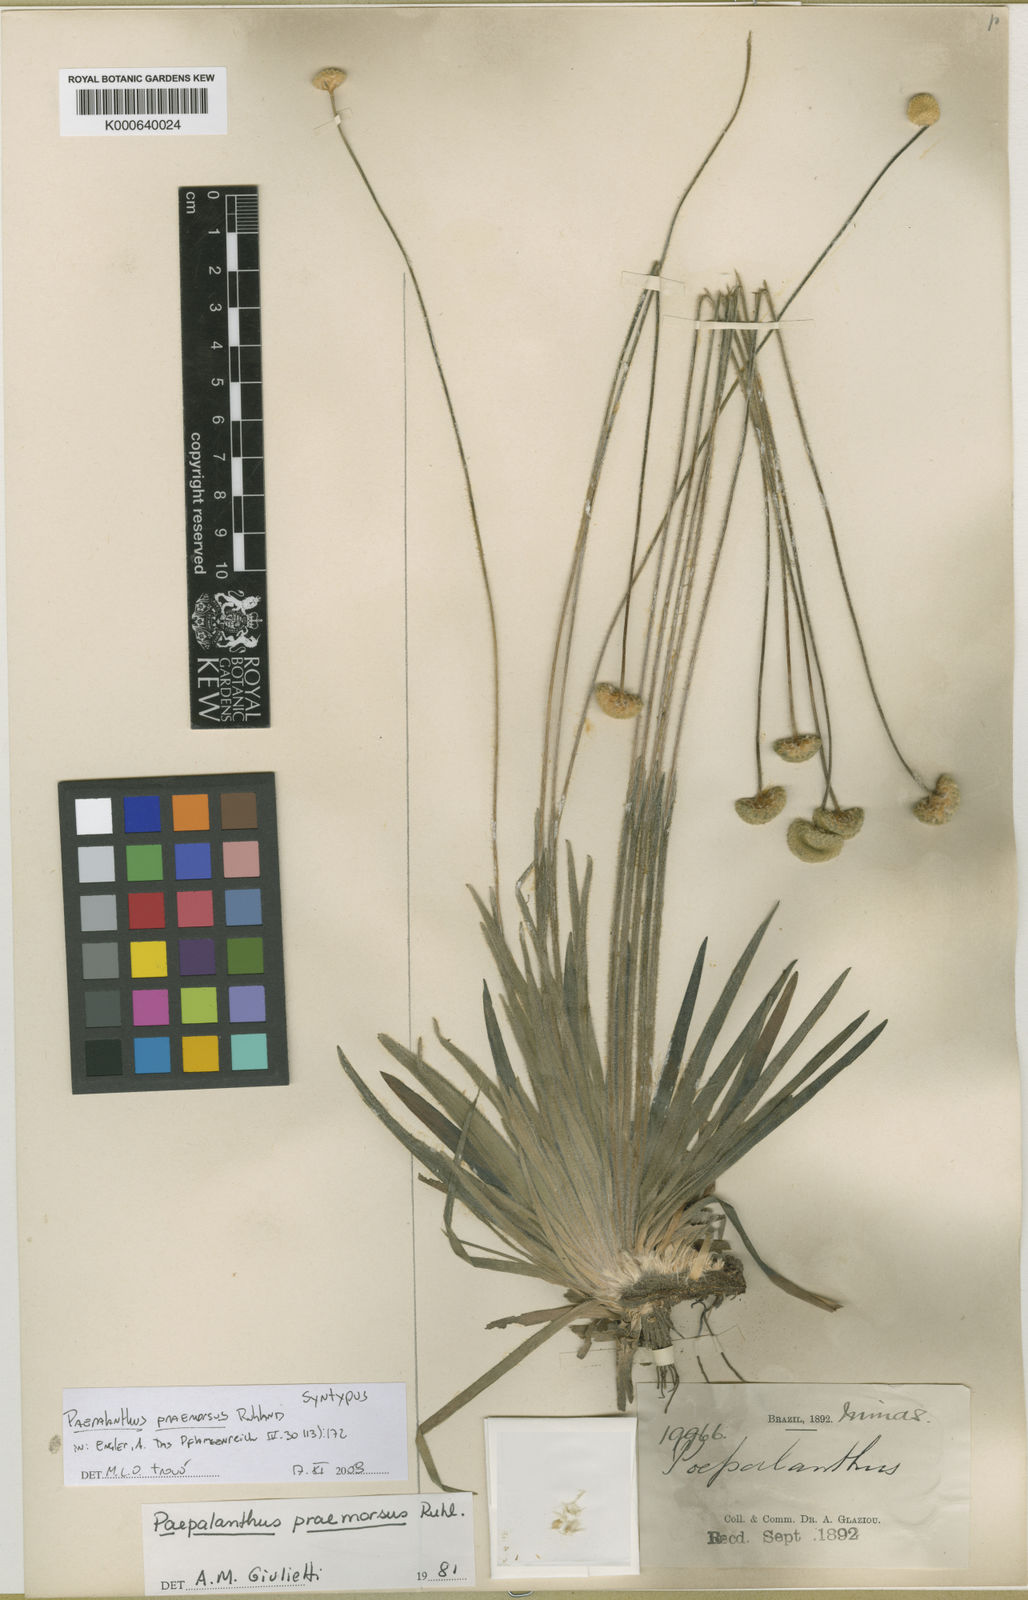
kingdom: Plantae
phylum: Tracheophyta
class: Liliopsida
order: Poales
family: Eriocaulaceae
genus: Paepalanthus
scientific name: Paepalanthus praemorsus
